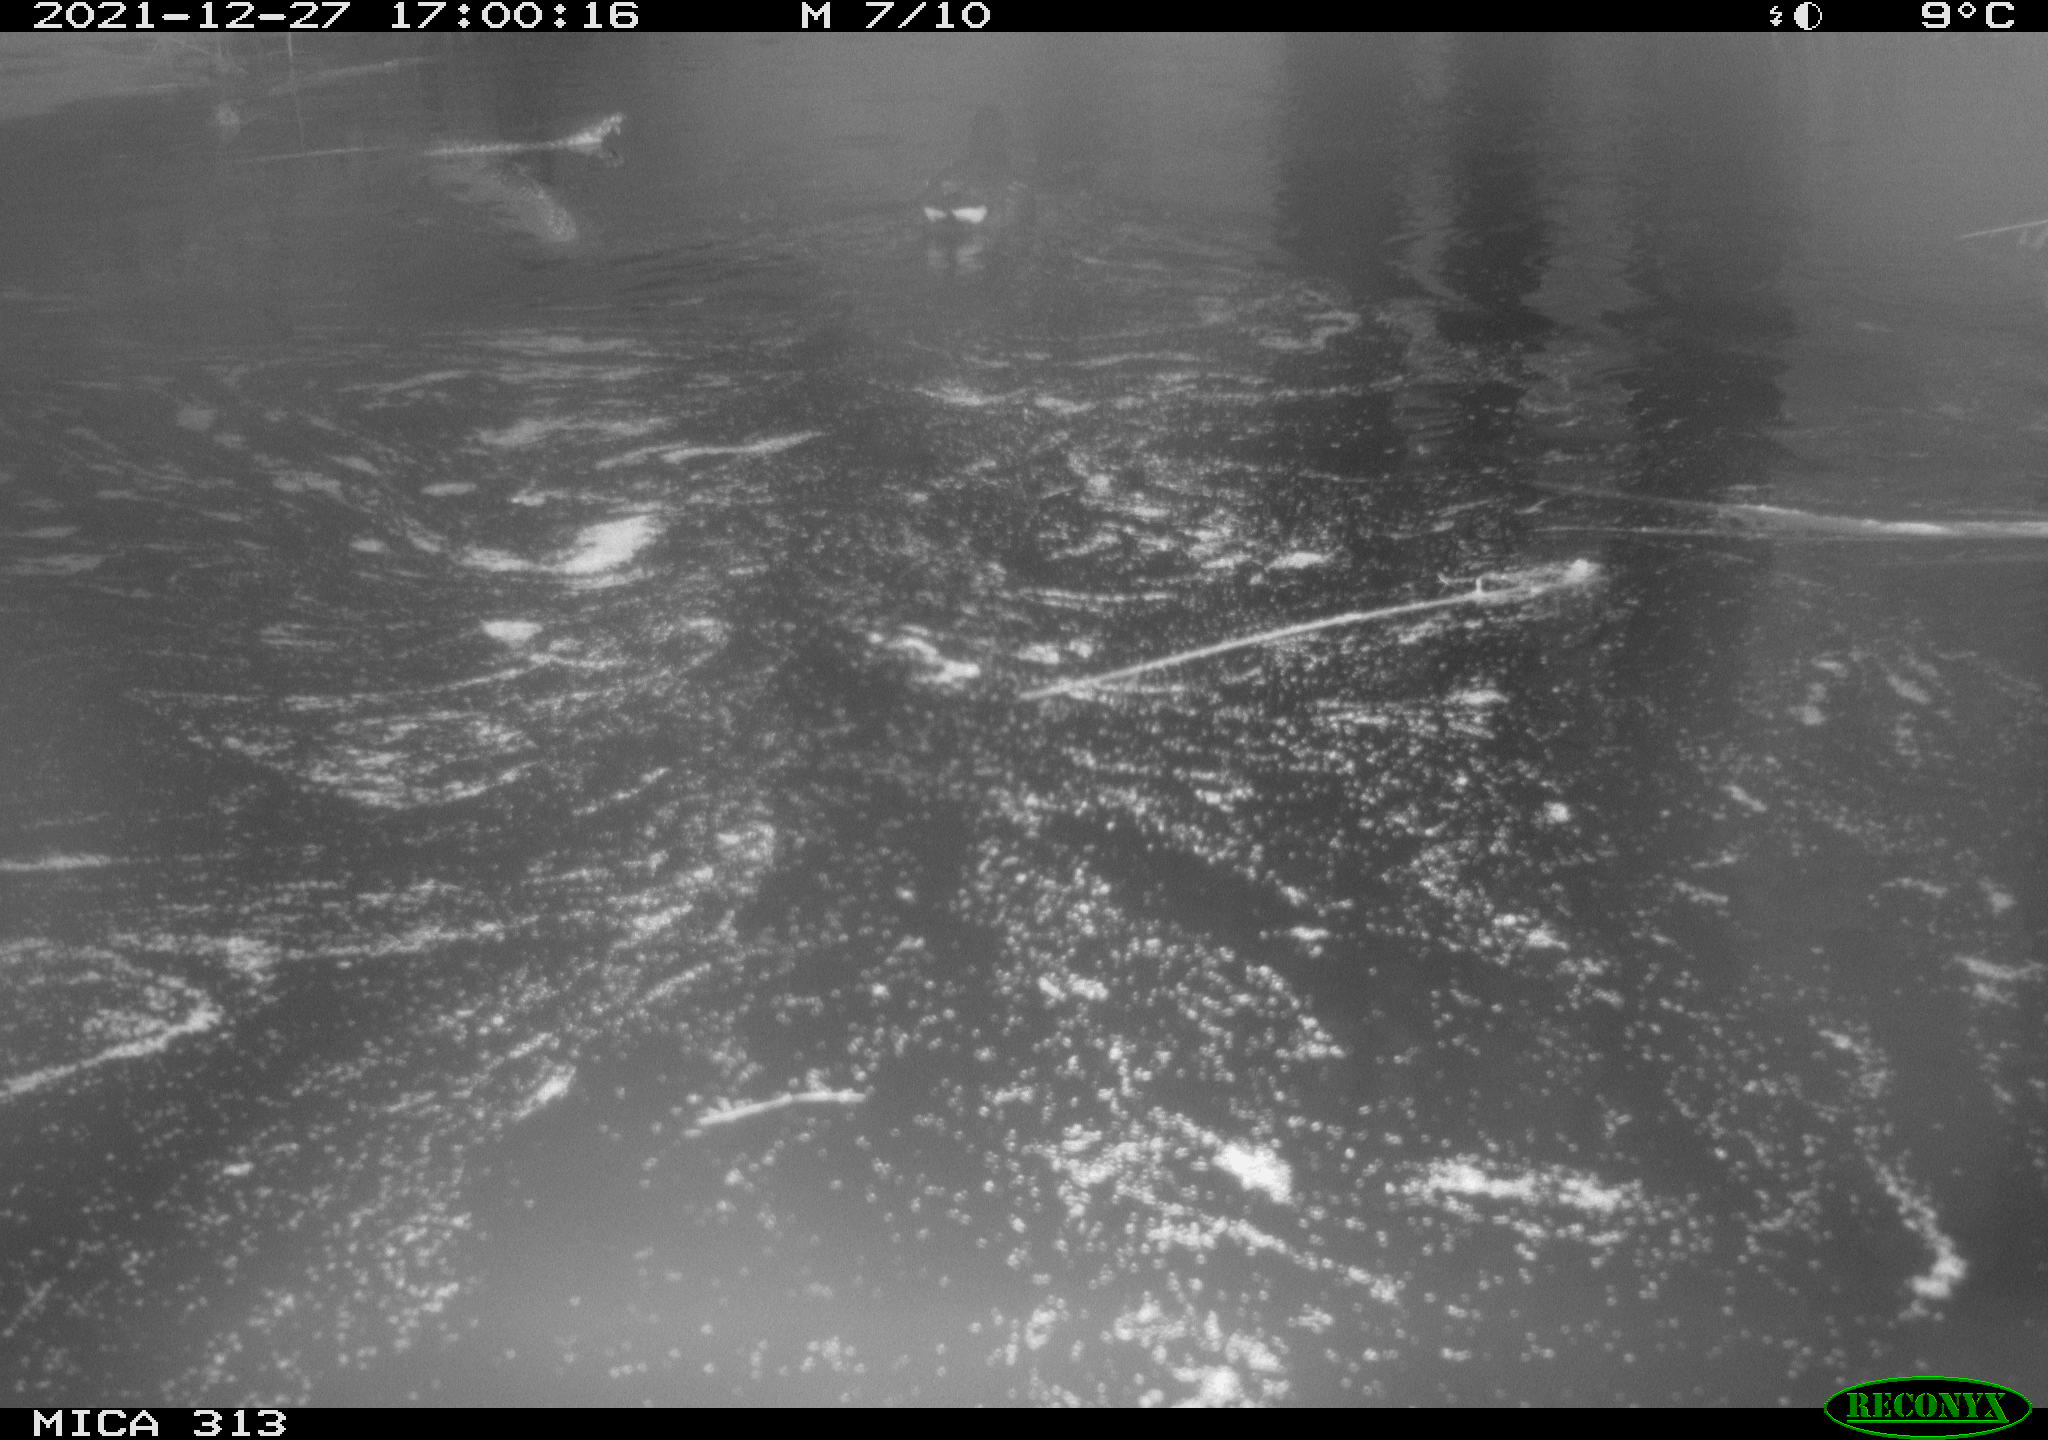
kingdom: Animalia
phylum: Chordata
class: Aves
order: Gruiformes
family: Rallidae
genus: Gallinula
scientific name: Gallinula chloropus
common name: Common moorhen
